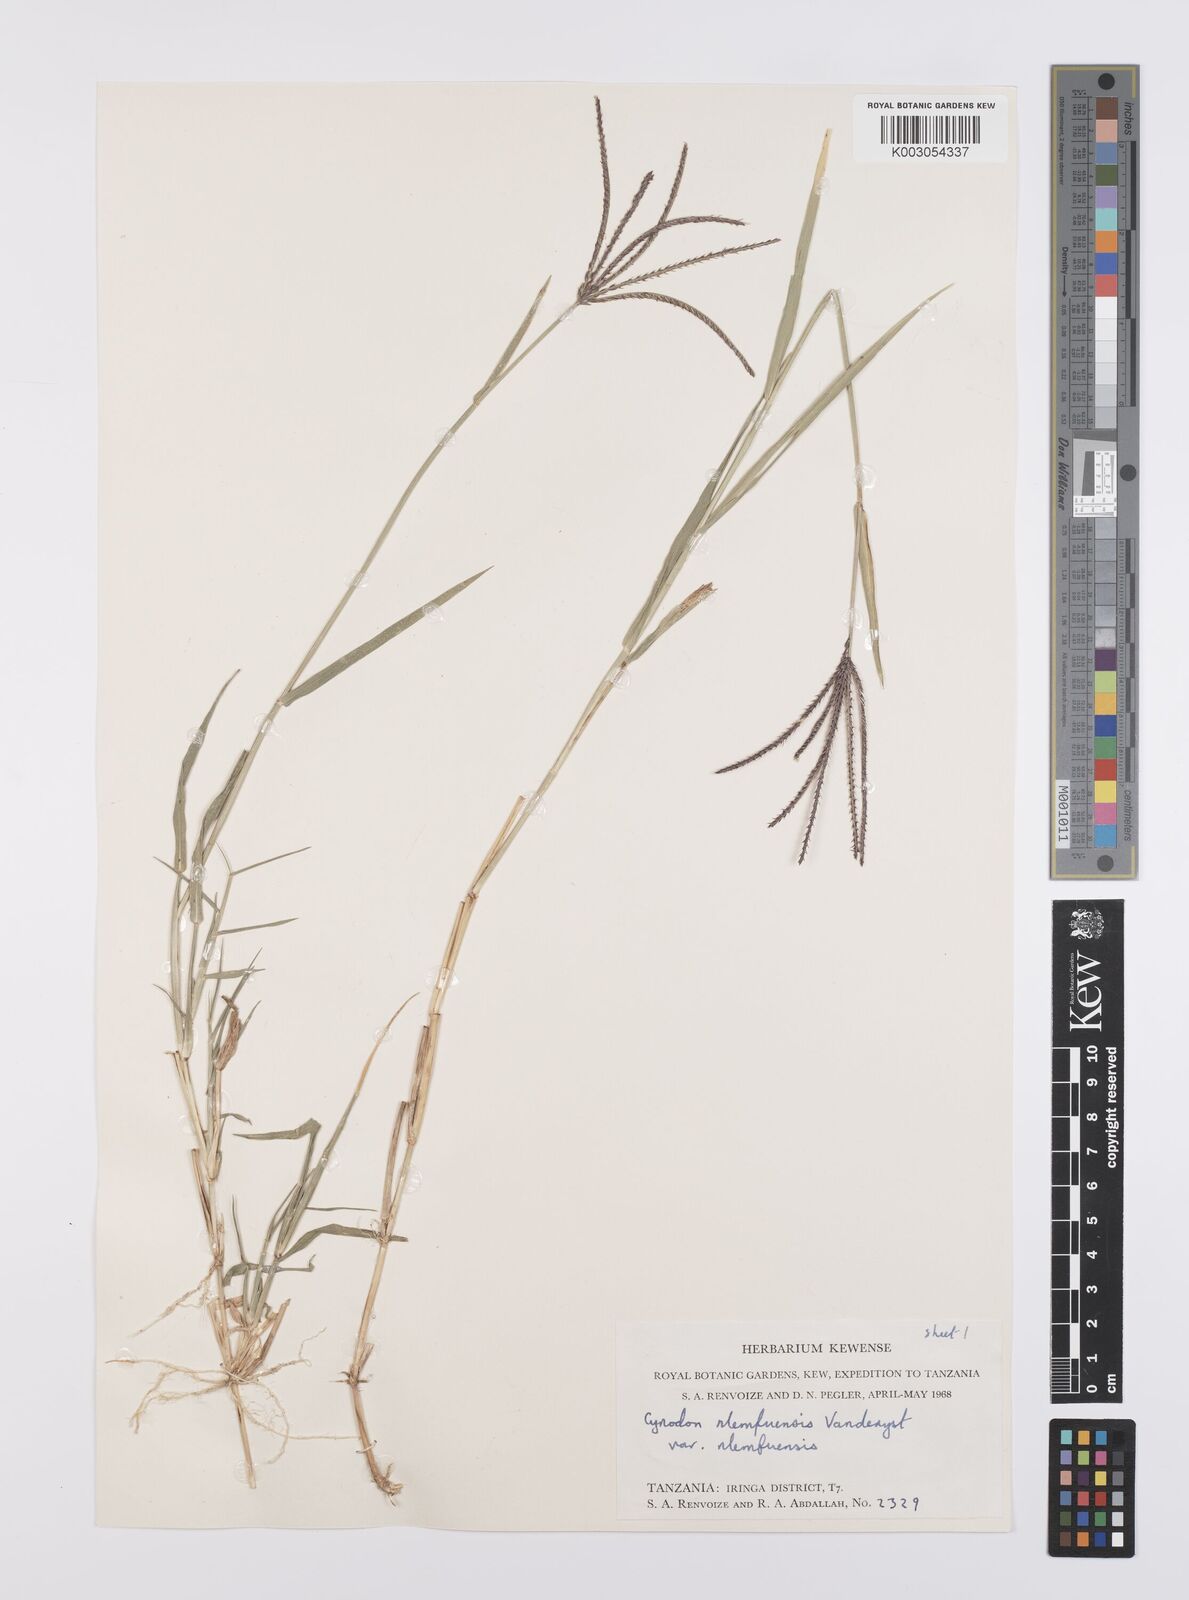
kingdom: Plantae
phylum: Tracheophyta
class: Liliopsida
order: Poales
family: Poaceae
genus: Cynodon
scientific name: Cynodon nlemfuensis
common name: African bermudagrass
